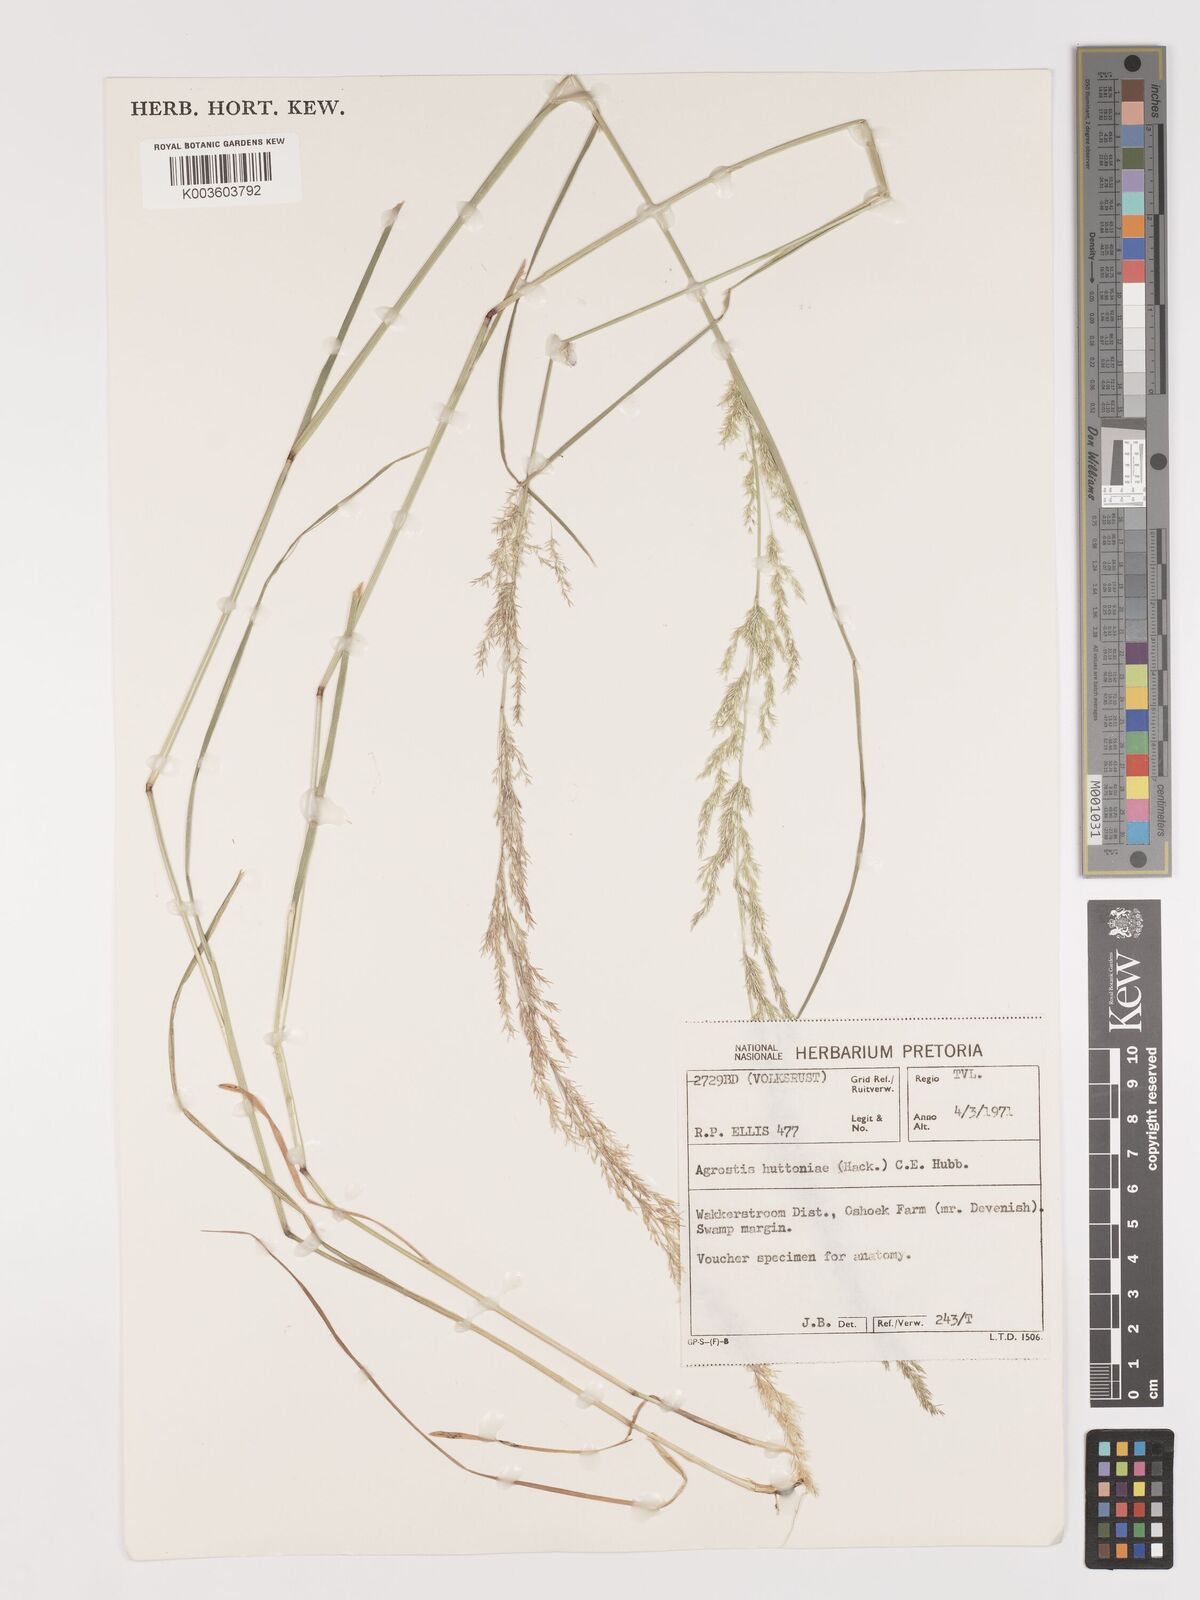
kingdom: Plantae
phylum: Tracheophyta
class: Liliopsida
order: Poales
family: Poaceae
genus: Lachnagrostis
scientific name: Lachnagrostis lachnantha
